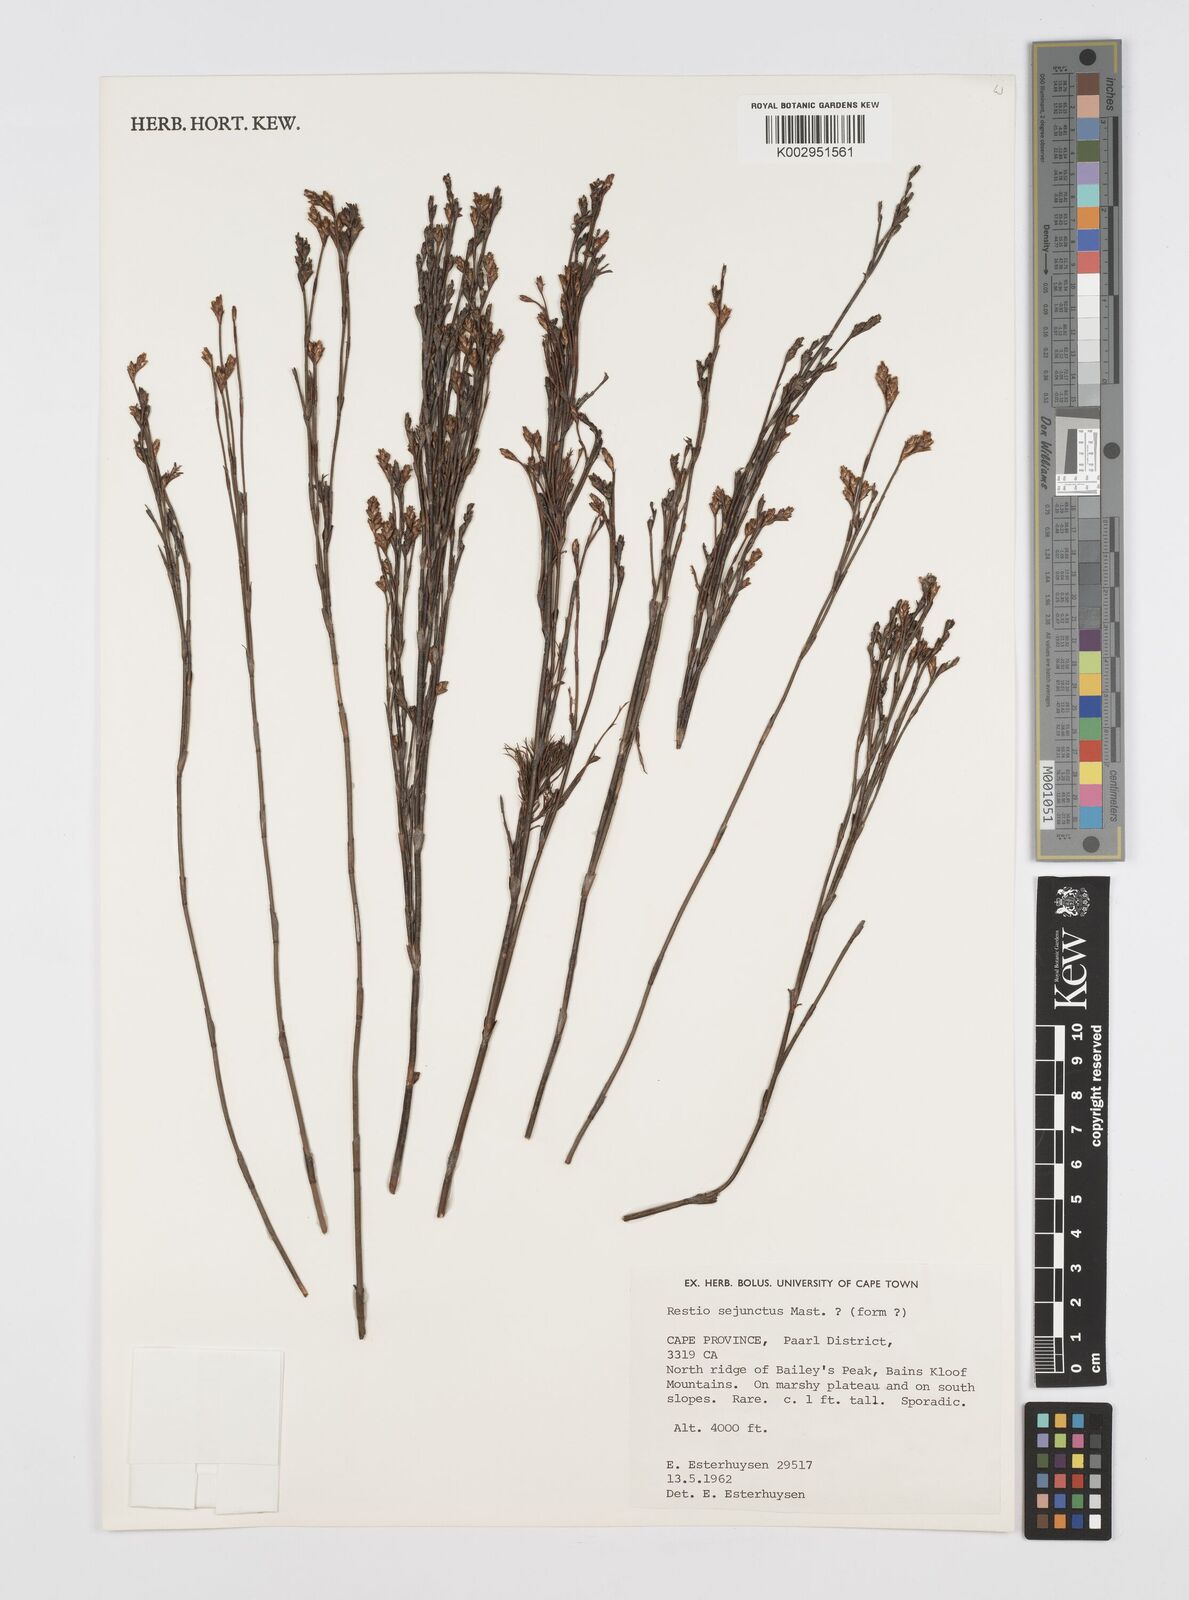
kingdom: Plantae
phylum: Tracheophyta
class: Liliopsida
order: Poales
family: Restionaceae
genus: Restio
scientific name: Restio sejunctus
